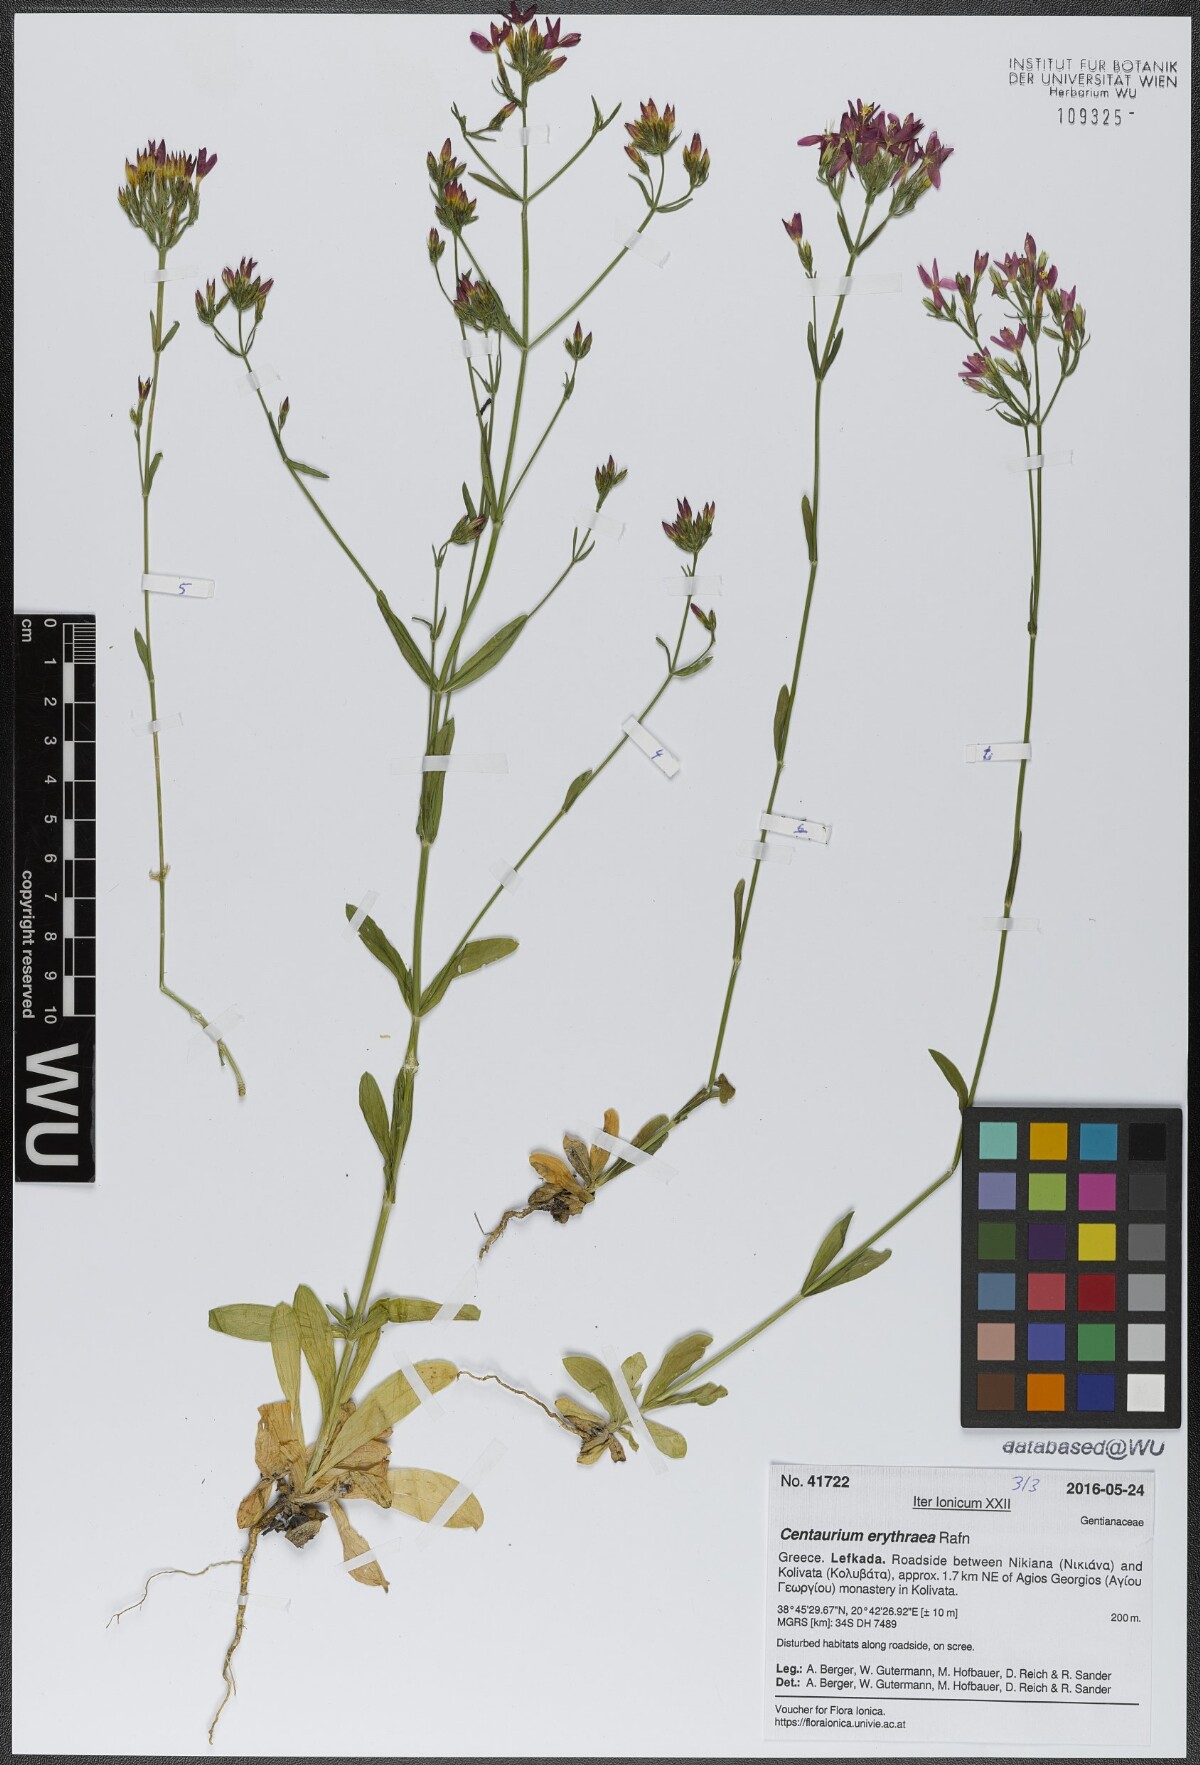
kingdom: Plantae
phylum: Tracheophyta
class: Magnoliopsida
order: Gentianales
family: Gentianaceae
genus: Centaurium
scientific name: Centaurium erythraea
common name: Common centaury
